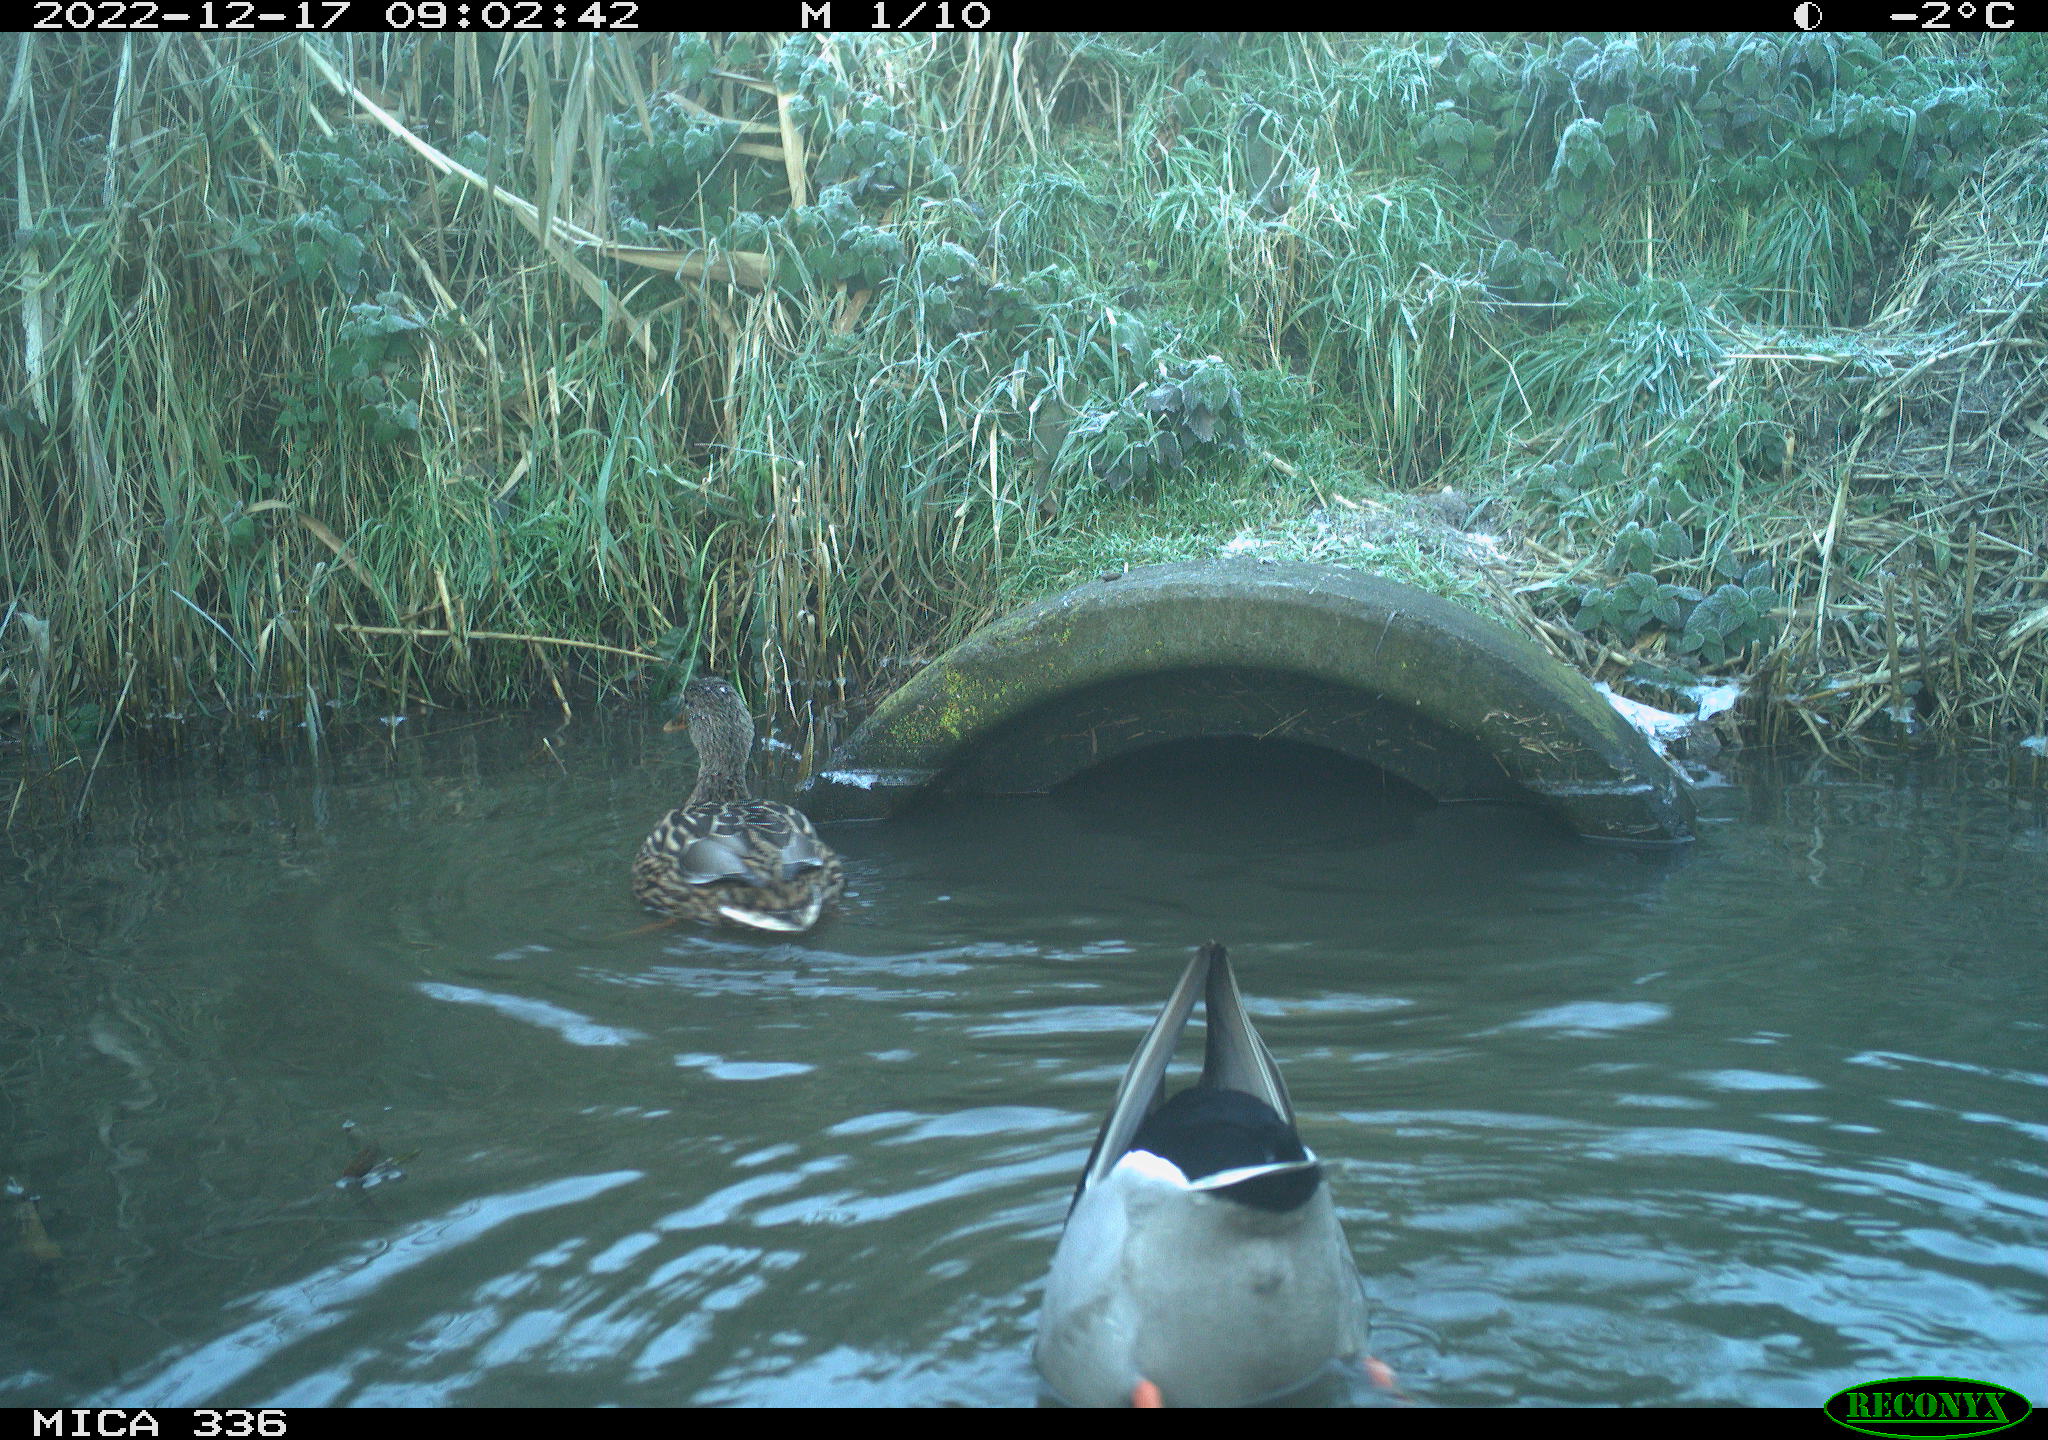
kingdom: Animalia
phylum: Chordata
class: Aves
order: Anseriformes
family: Anatidae
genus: Anas
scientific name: Anas
